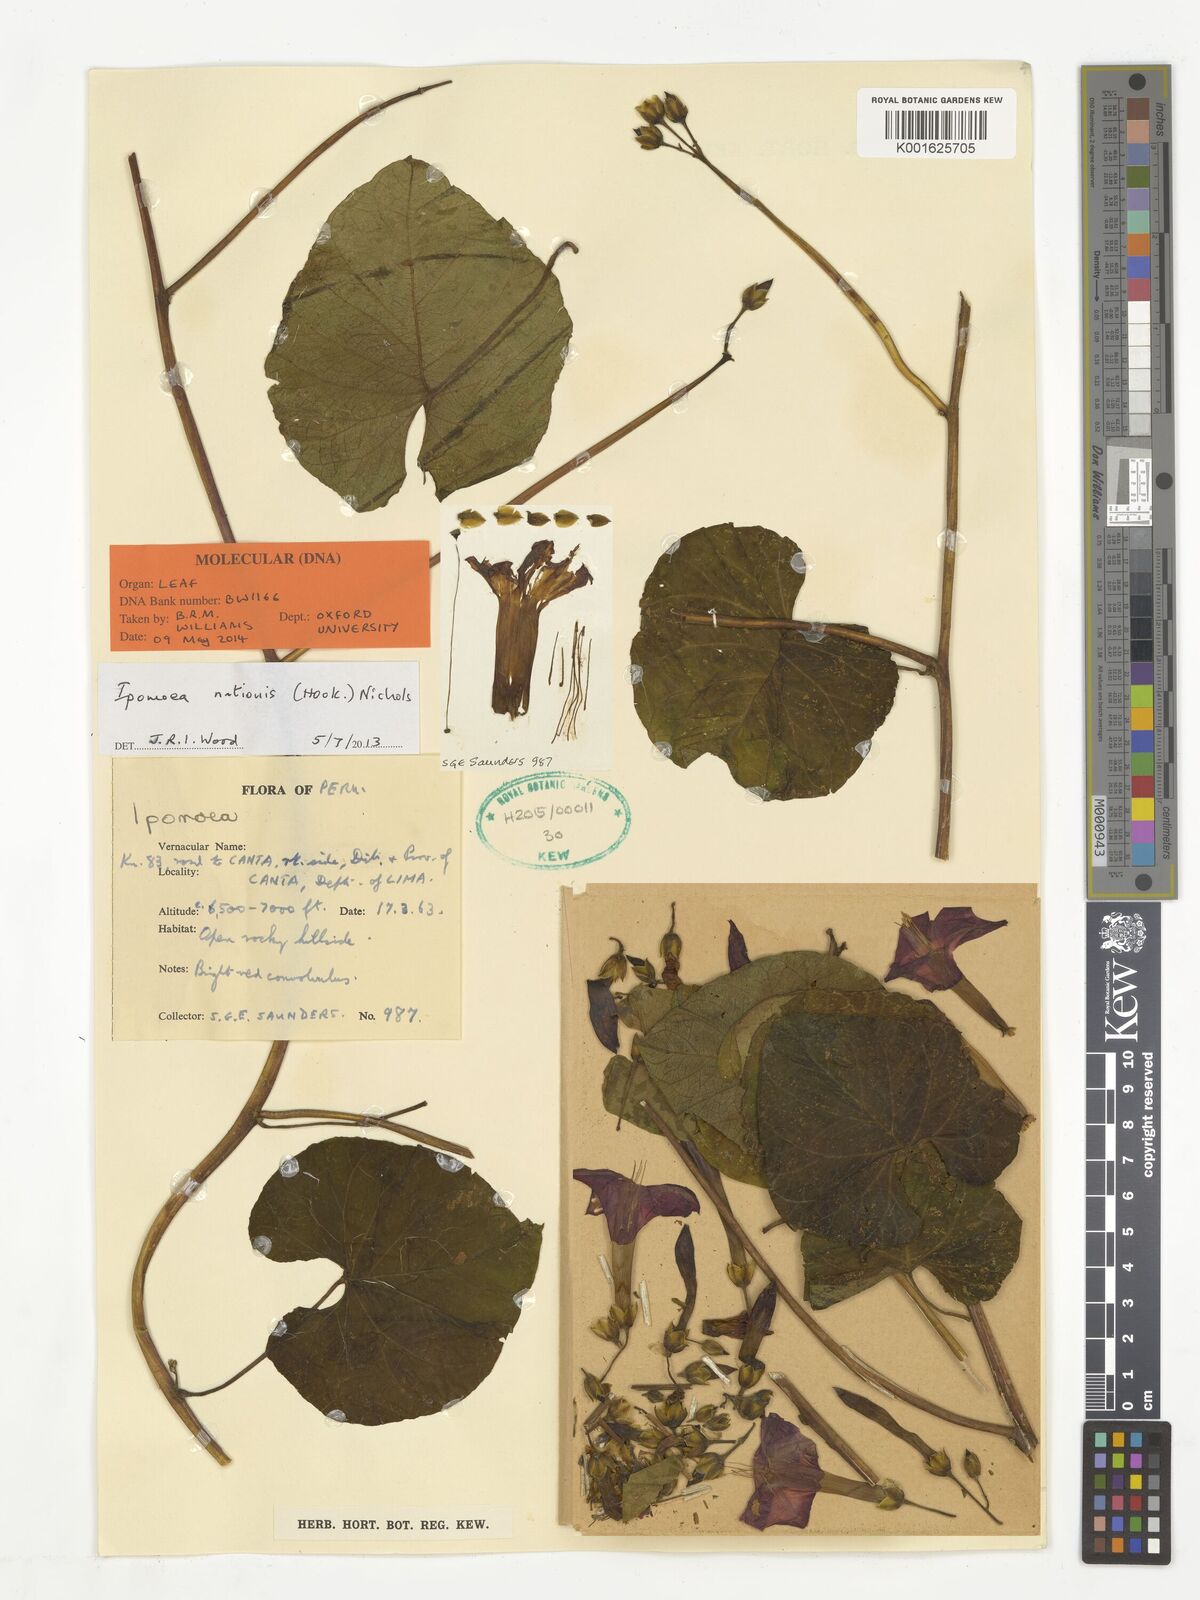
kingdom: Plantae
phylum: Tracheophyta
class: Magnoliopsida
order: Solanales
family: Convolvulaceae
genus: Ipomoea
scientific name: Ipomoea nationis
